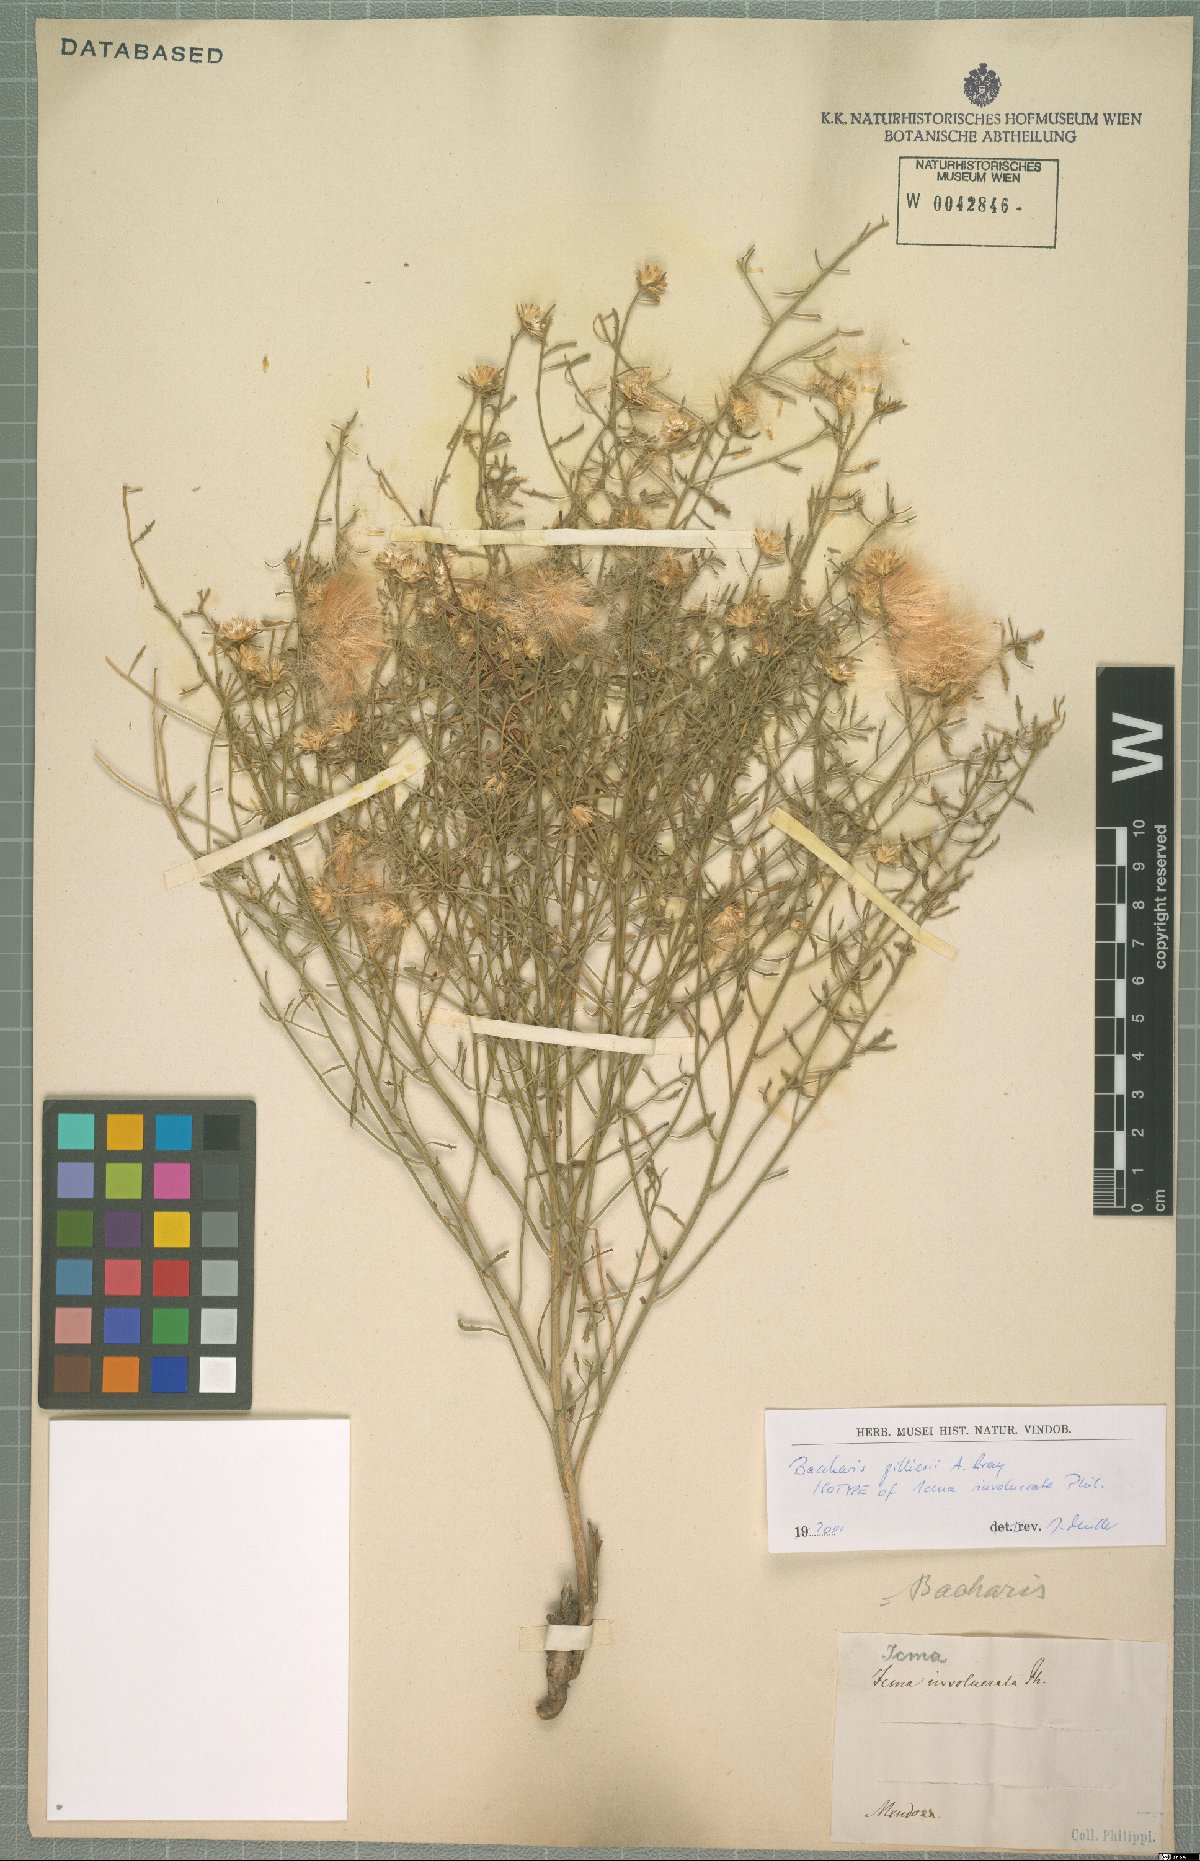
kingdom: Plantae
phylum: Tracheophyta
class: Magnoliopsida
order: Asterales
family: Asteraceae
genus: Baccharis
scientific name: Baccharis gilliesii
